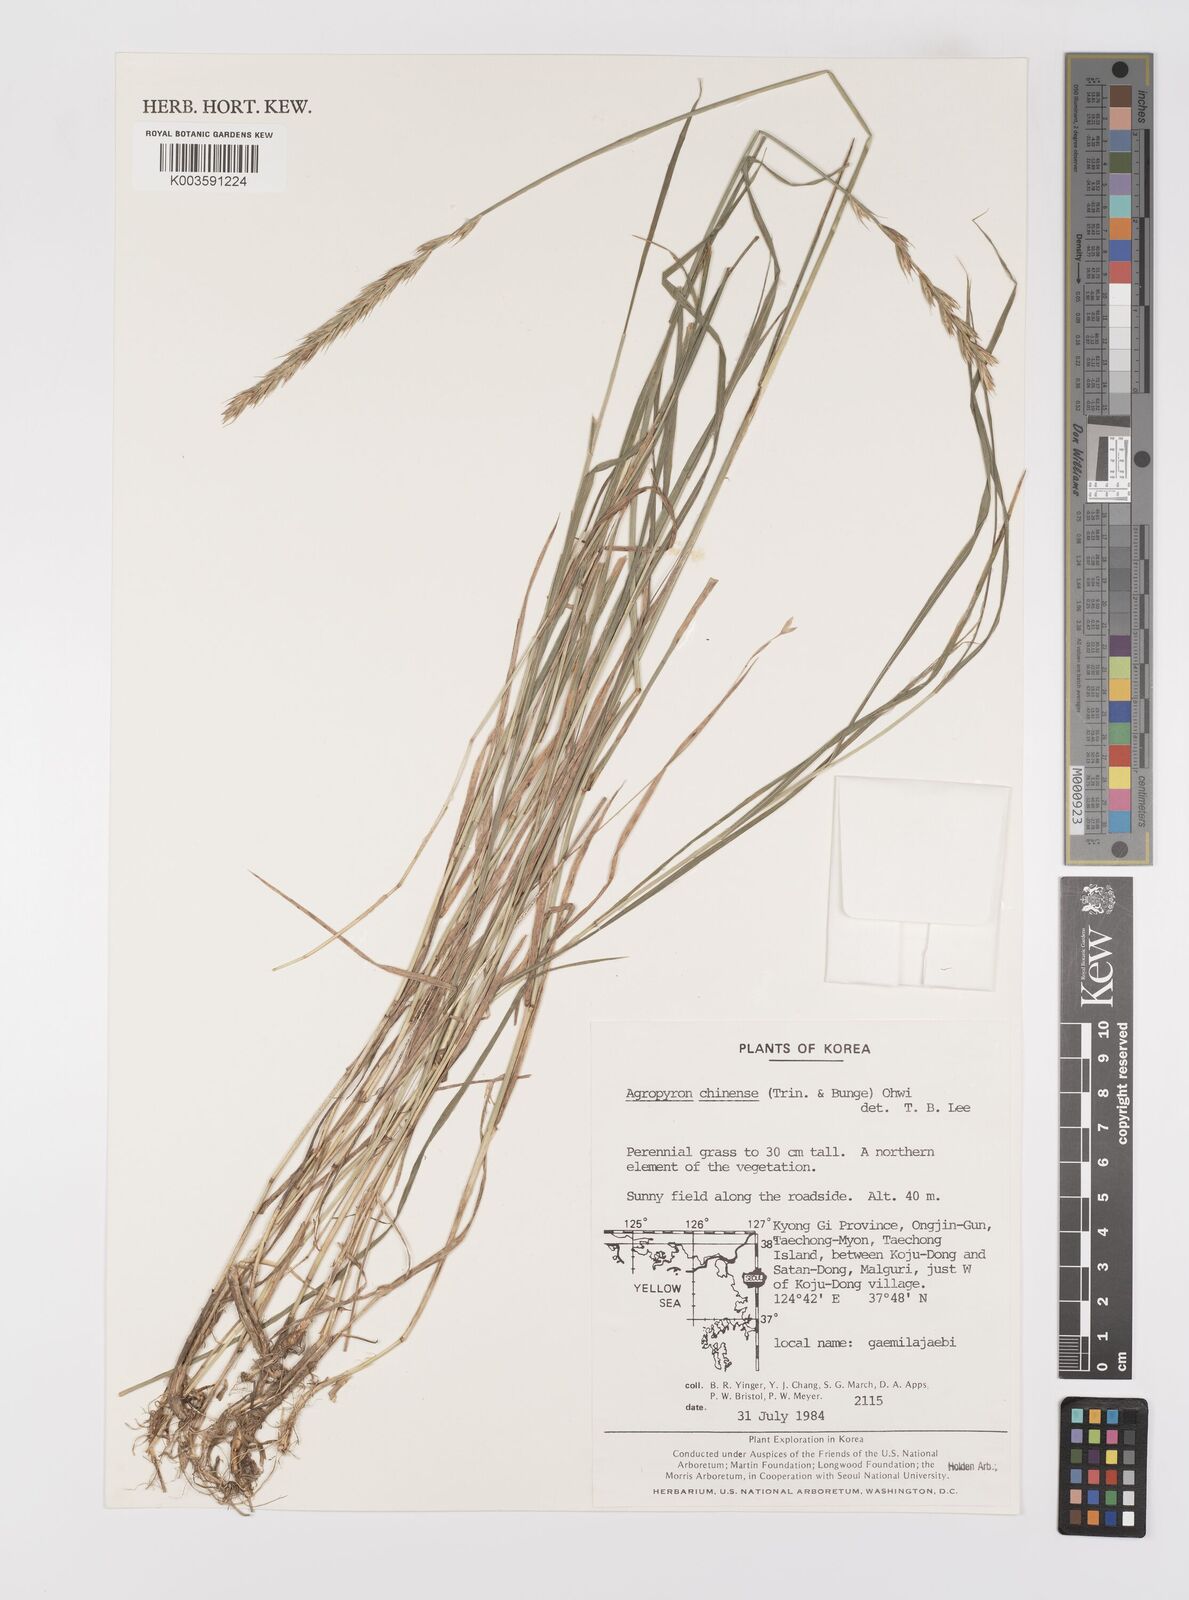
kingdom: Plantae
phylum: Tracheophyta
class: Liliopsida
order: Poales
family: Poaceae
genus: Leymus
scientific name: Leymus chinensis
